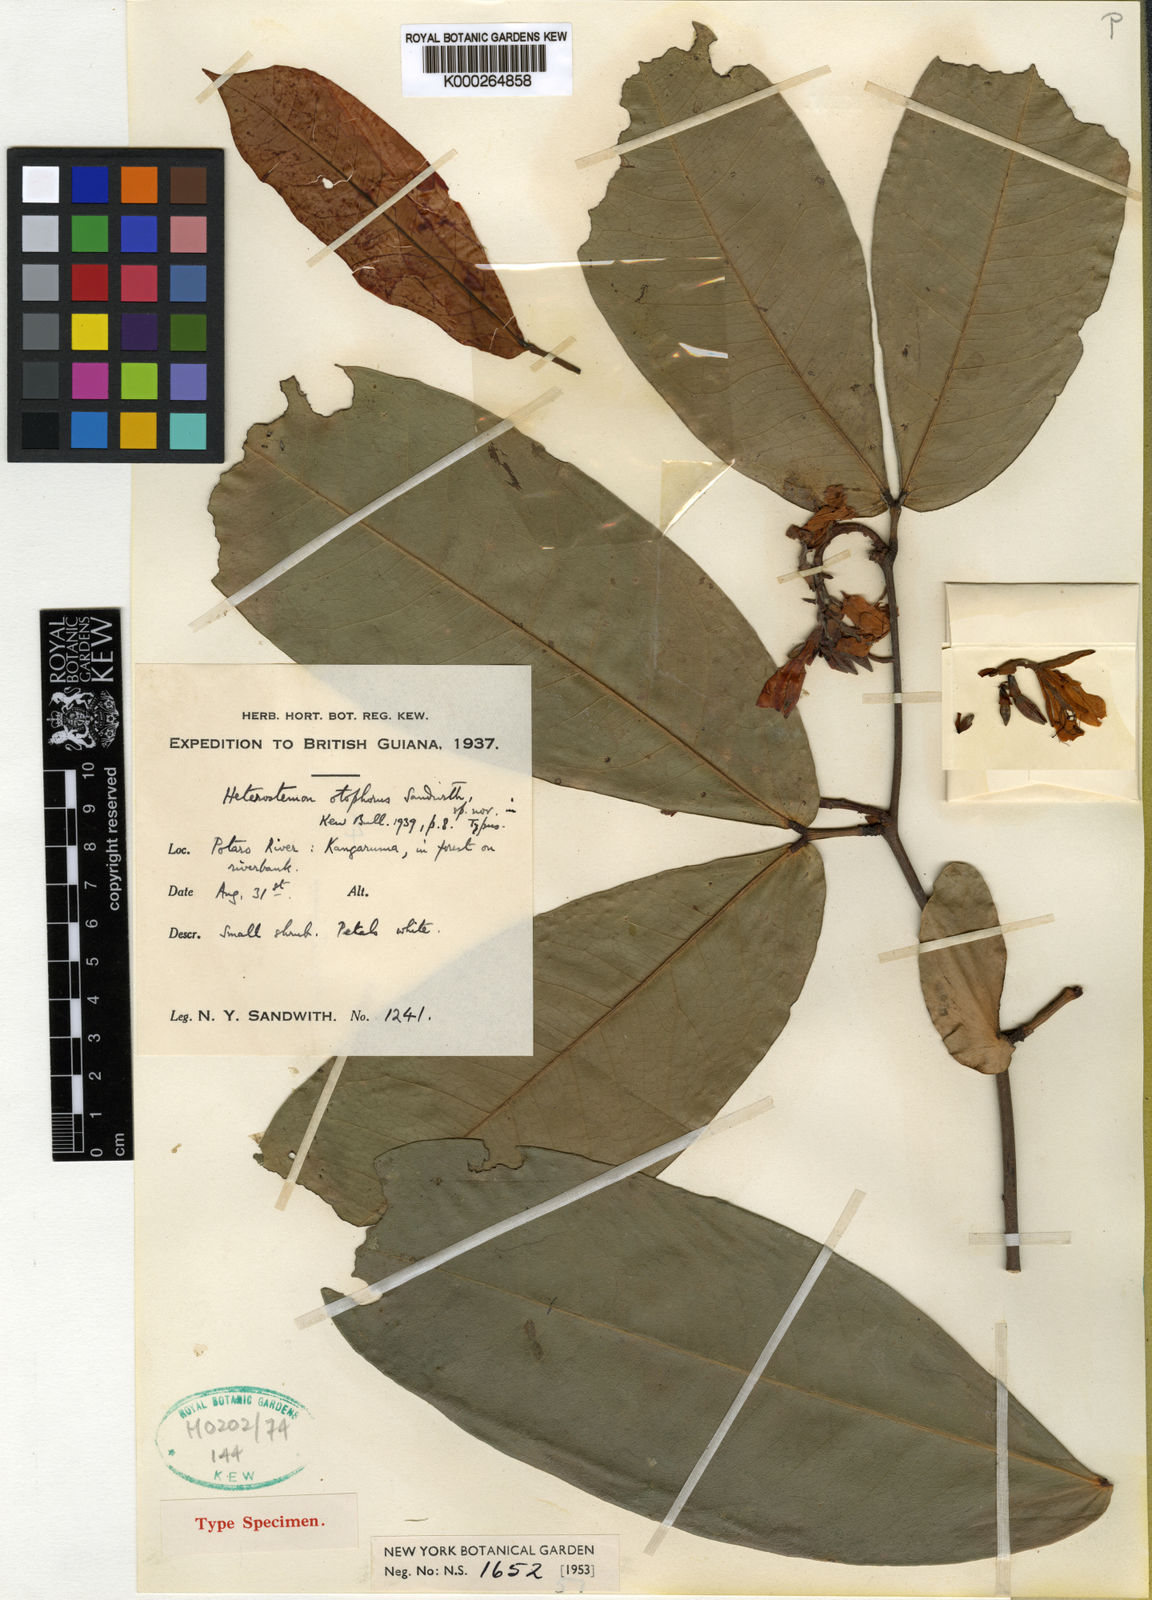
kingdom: Plantae
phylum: Tracheophyta
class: Magnoliopsida
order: Fabales
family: Fabaceae
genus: Heterostemon
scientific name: Heterostemon otophorus
